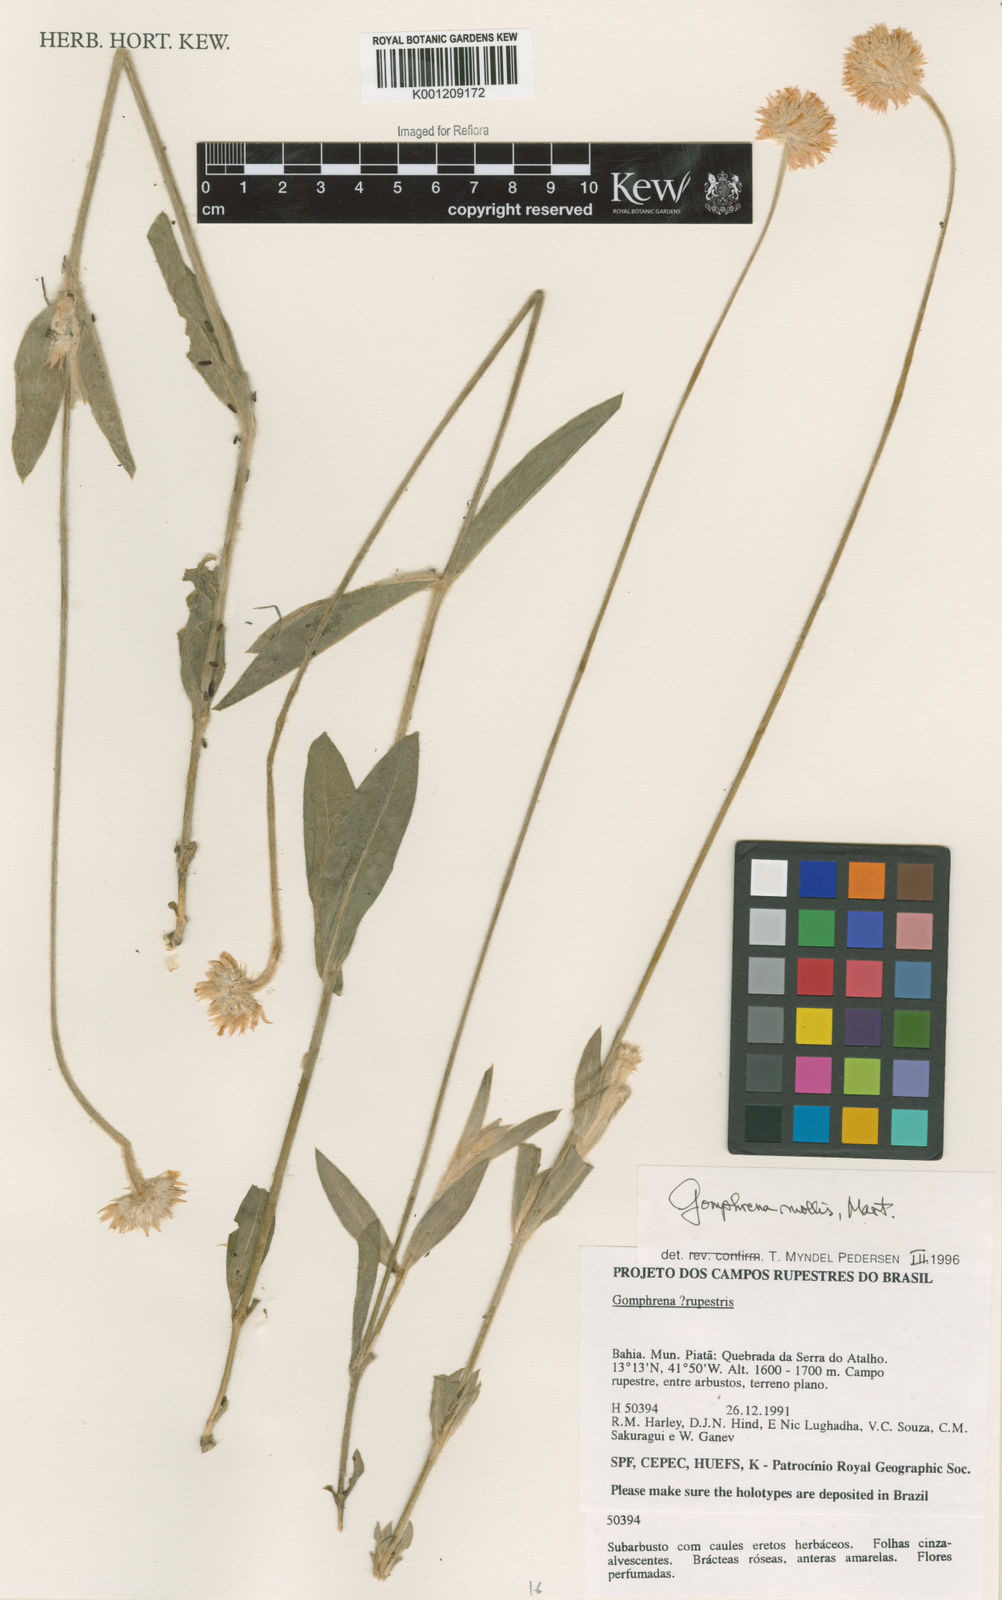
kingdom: Plantae
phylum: Tracheophyta
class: Magnoliopsida
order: Caryophyllales
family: Amaranthaceae
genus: Gomphrena
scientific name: Gomphrena mollis
